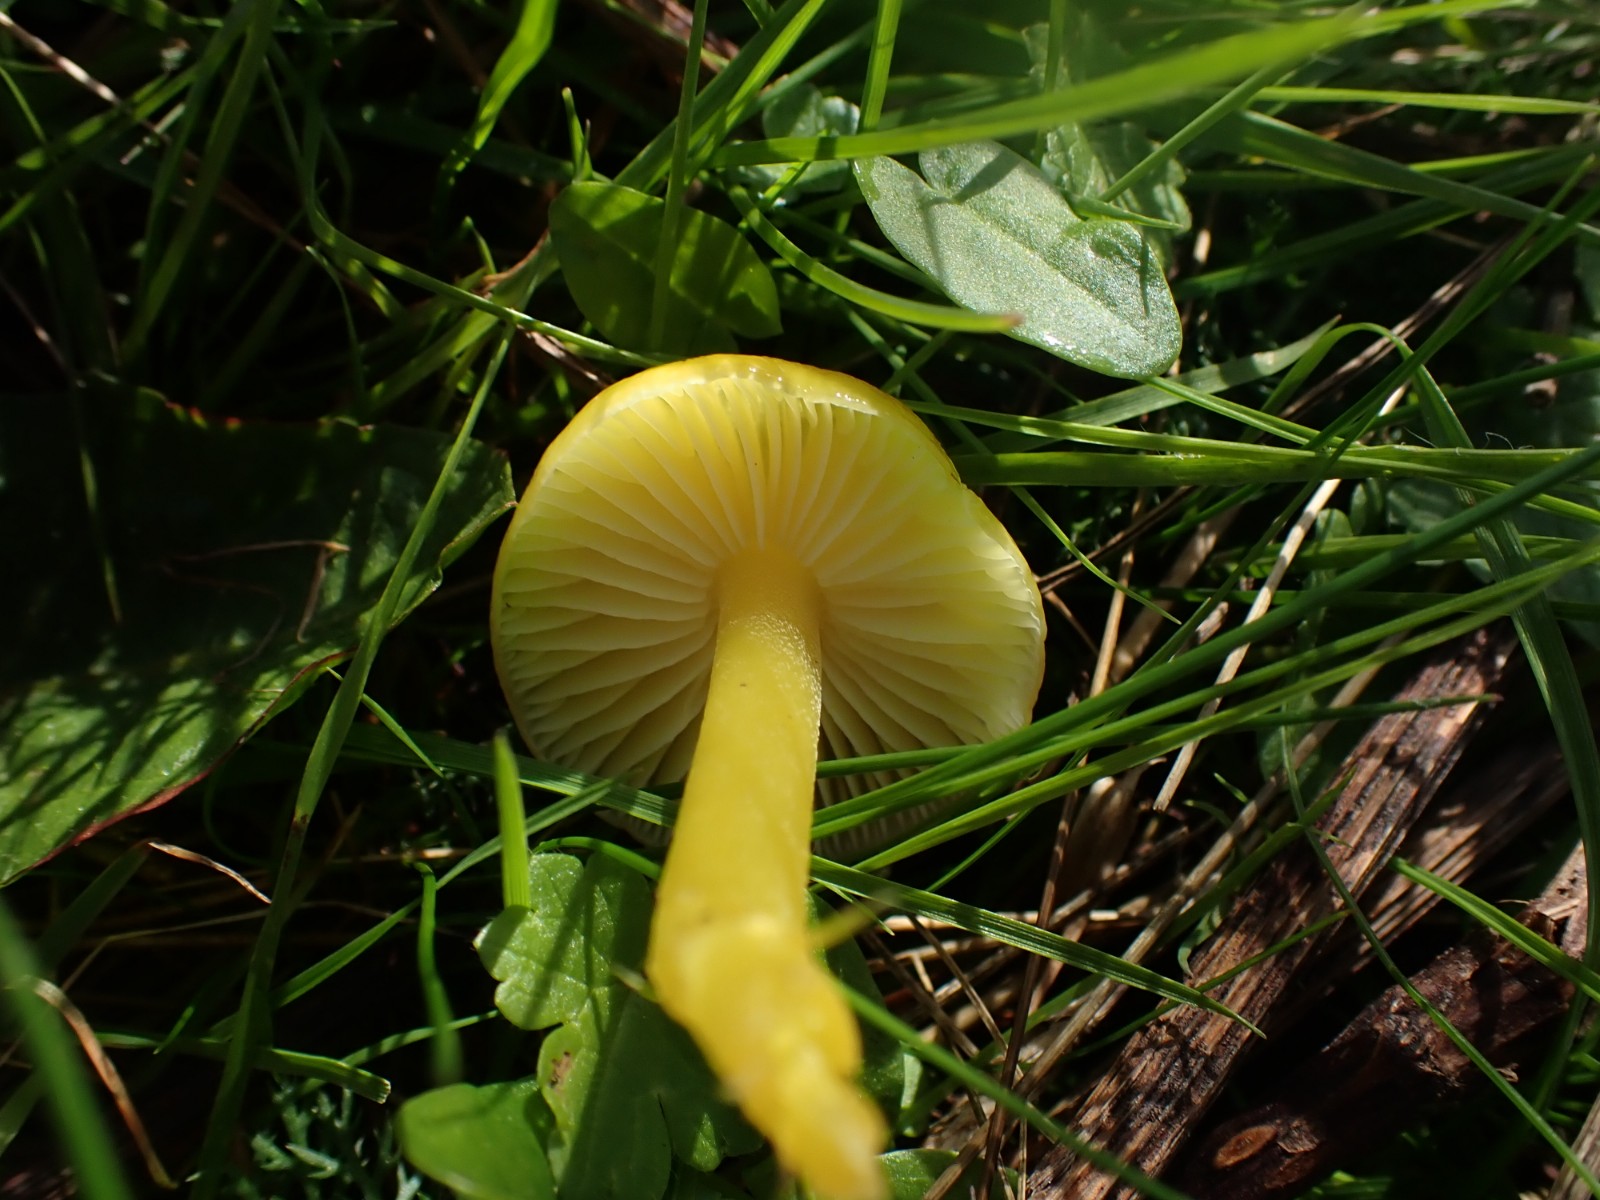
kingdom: Fungi
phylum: Basidiomycota
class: Agaricomycetes
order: Agaricales
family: Hygrophoraceae
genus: Hygrocybe
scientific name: Hygrocybe ceracea
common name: voksgul vokshat
